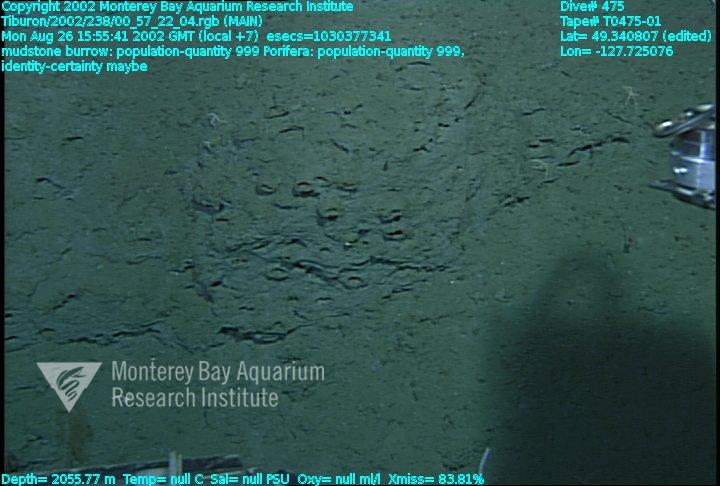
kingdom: Animalia
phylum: Porifera
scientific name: Porifera
